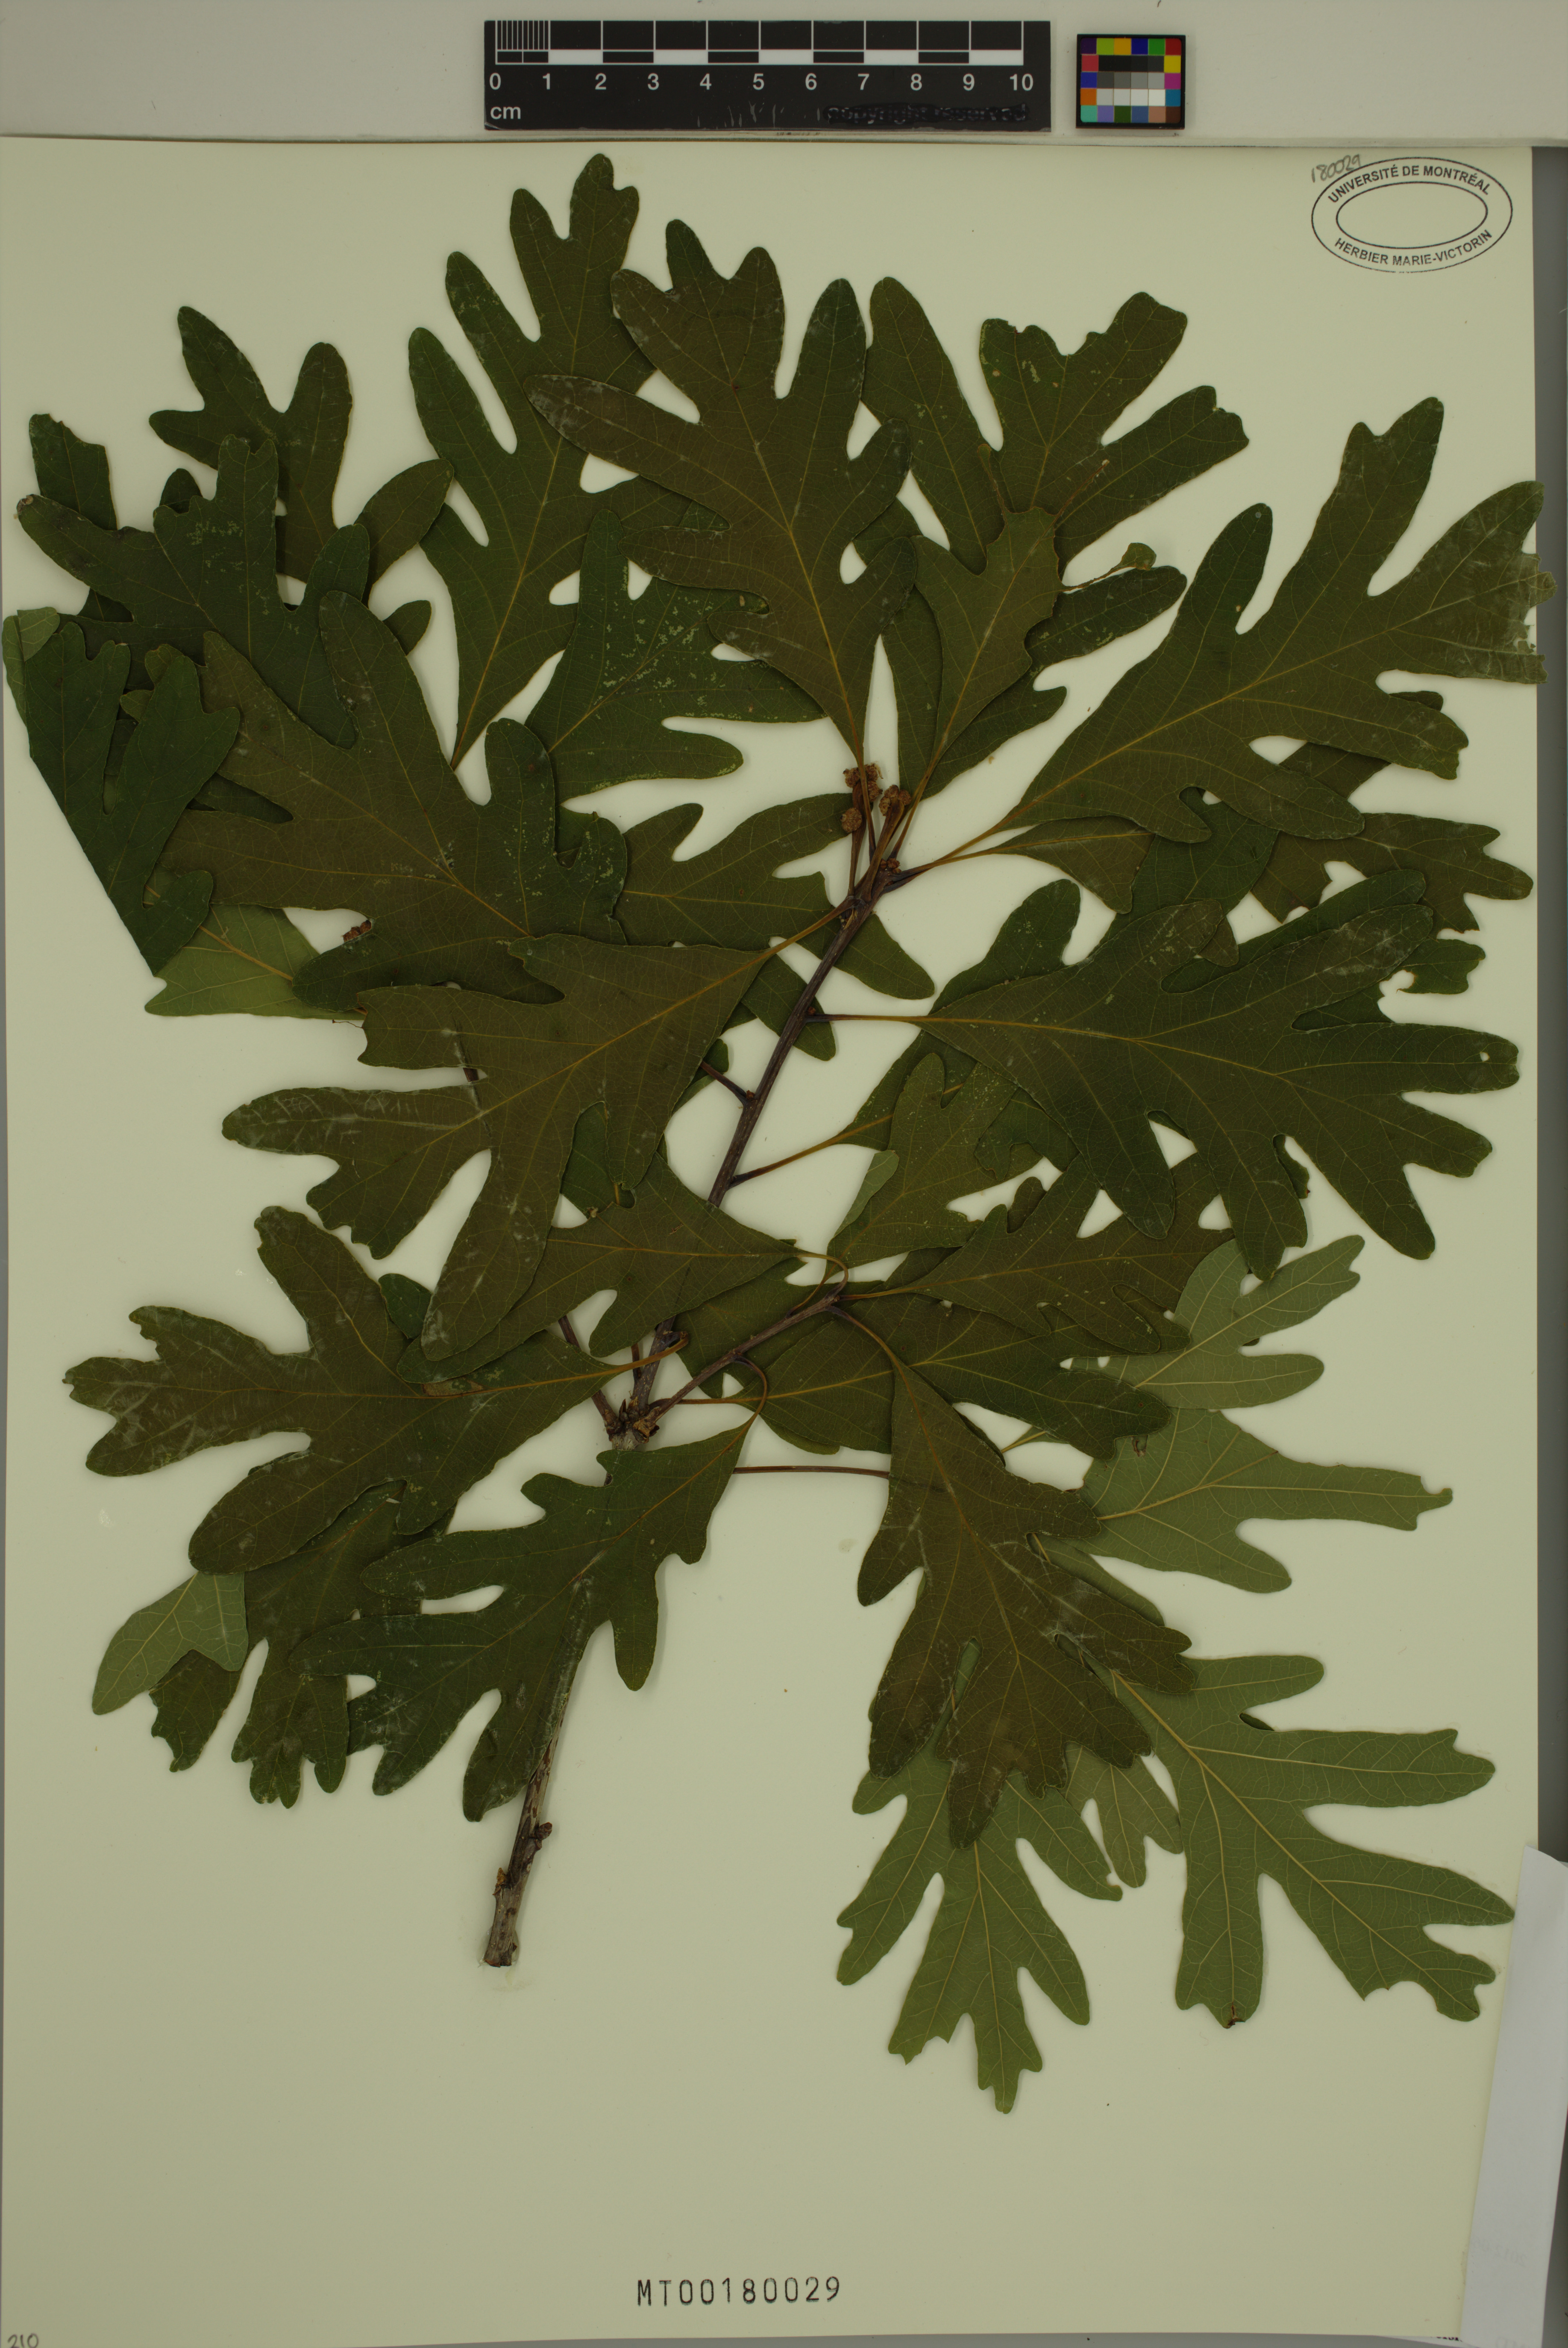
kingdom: Plantae
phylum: Tracheophyta
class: Magnoliopsida
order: Fagales
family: Fagaceae
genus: Quercus
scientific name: Quercus alba
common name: White oak
